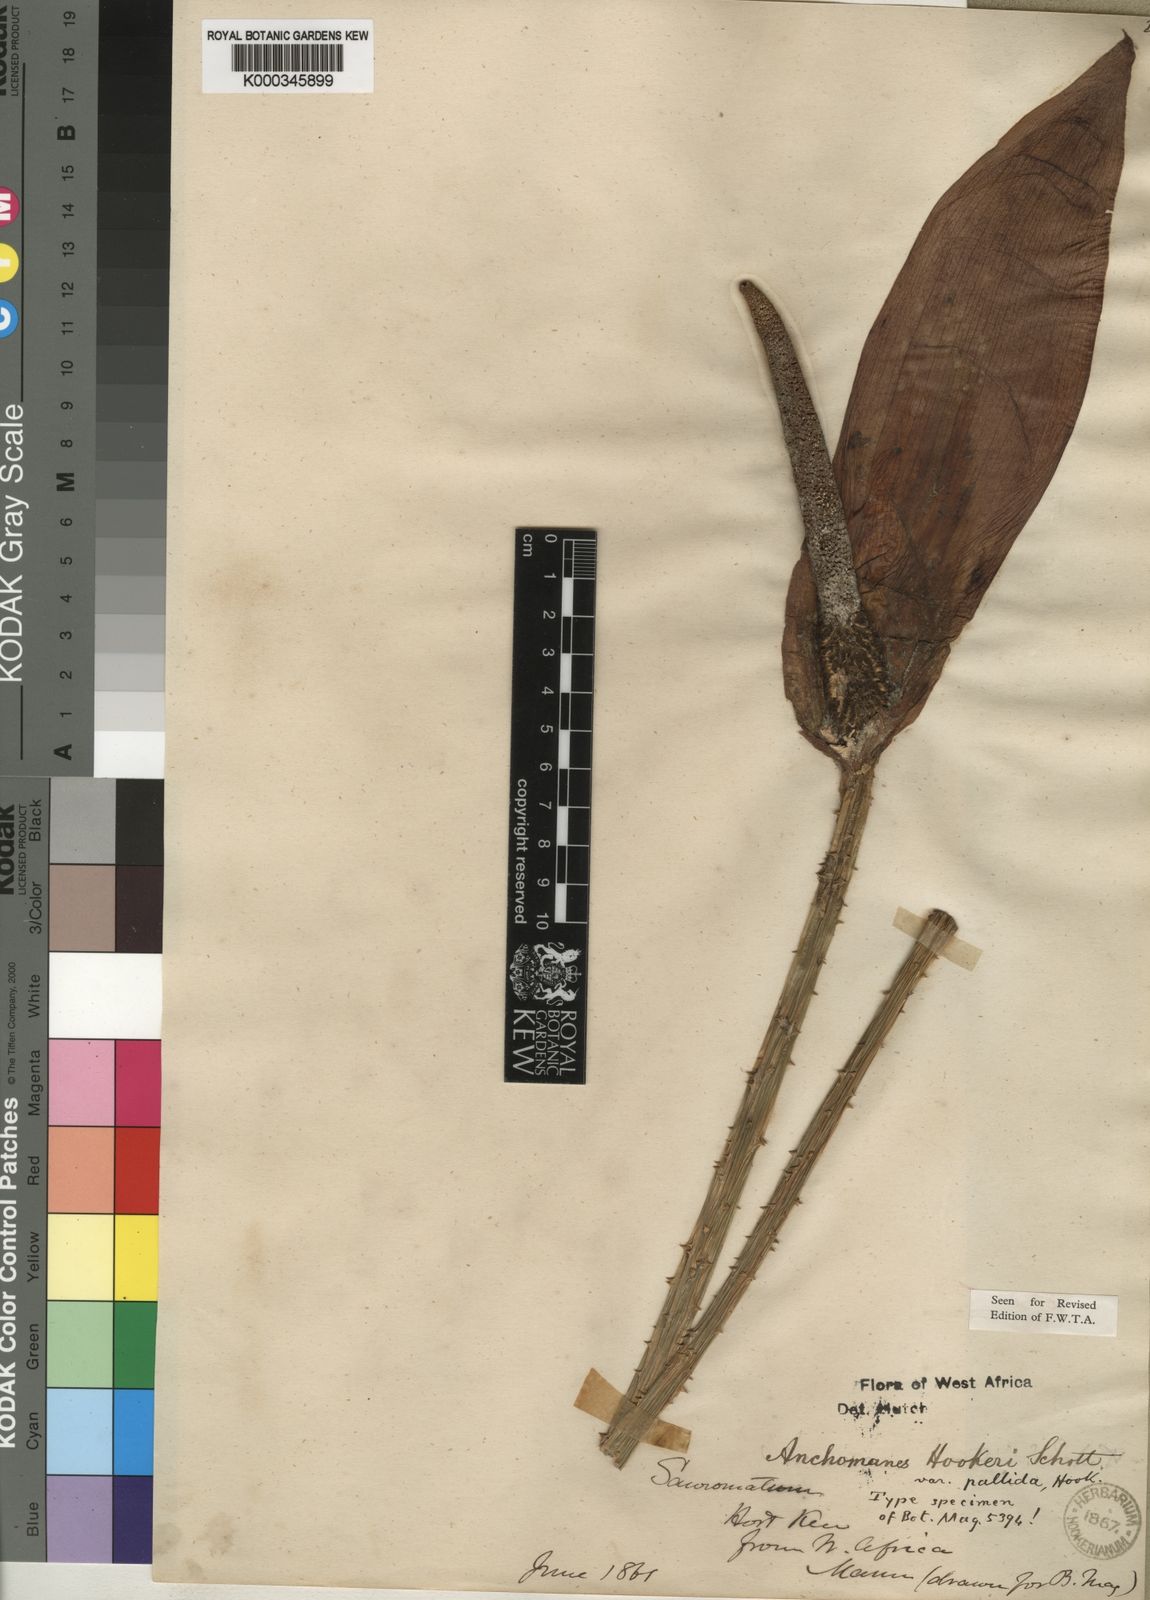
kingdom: Plantae
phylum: Tracheophyta
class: Liliopsida
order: Alismatales
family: Araceae
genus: Anchomanes
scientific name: Anchomanes difformis
